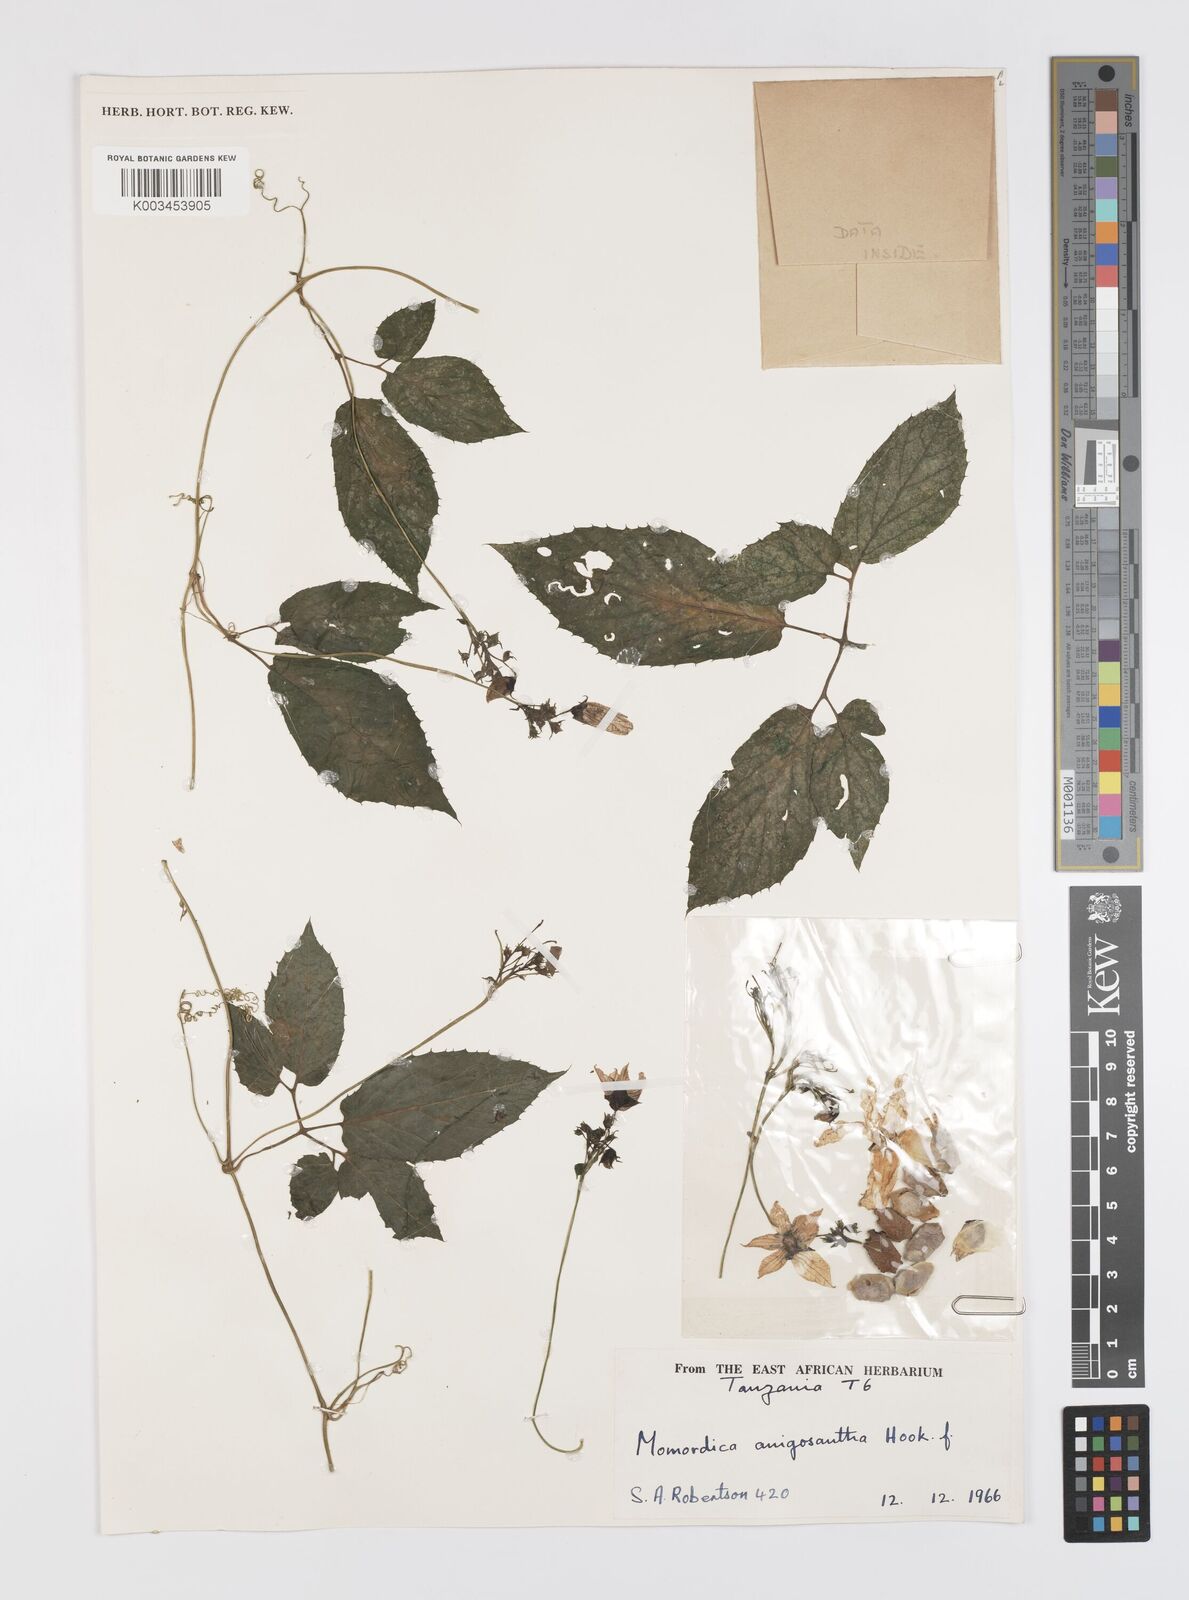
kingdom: Plantae
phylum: Tracheophyta
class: Magnoliopsida
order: Cucurbitales
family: Cucurbitaceae
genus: Momordica
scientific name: Momordica anigosantha
